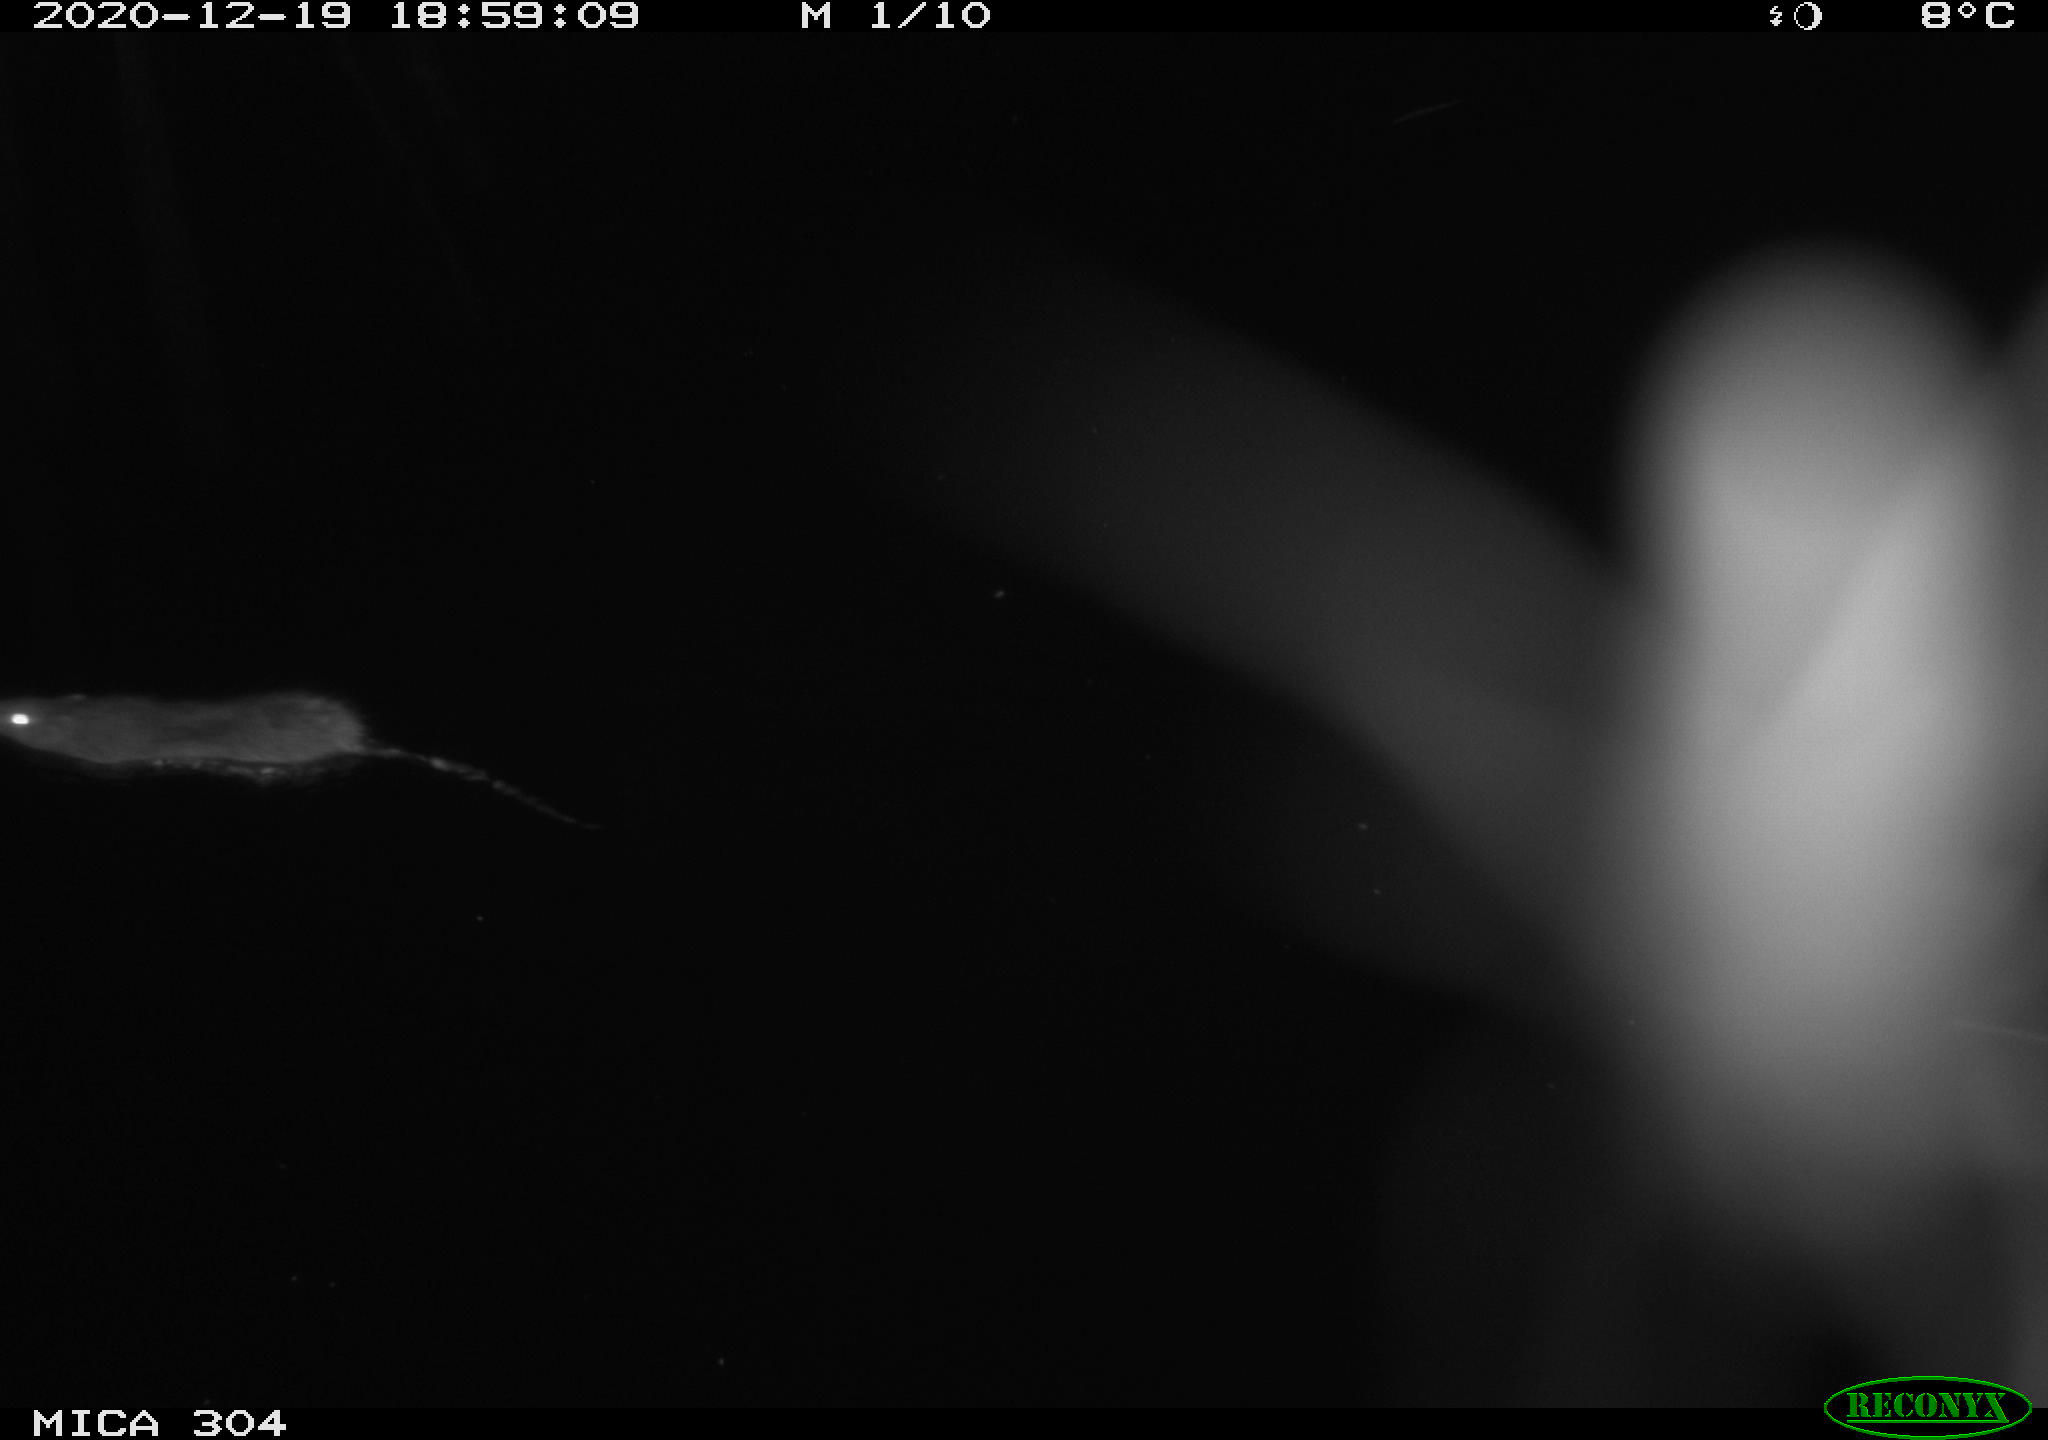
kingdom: Animalia
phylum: Chordata
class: Mammalia
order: Rodentia
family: Muridae
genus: Rattus
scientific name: Rattus norvegicus
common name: Brown rat
